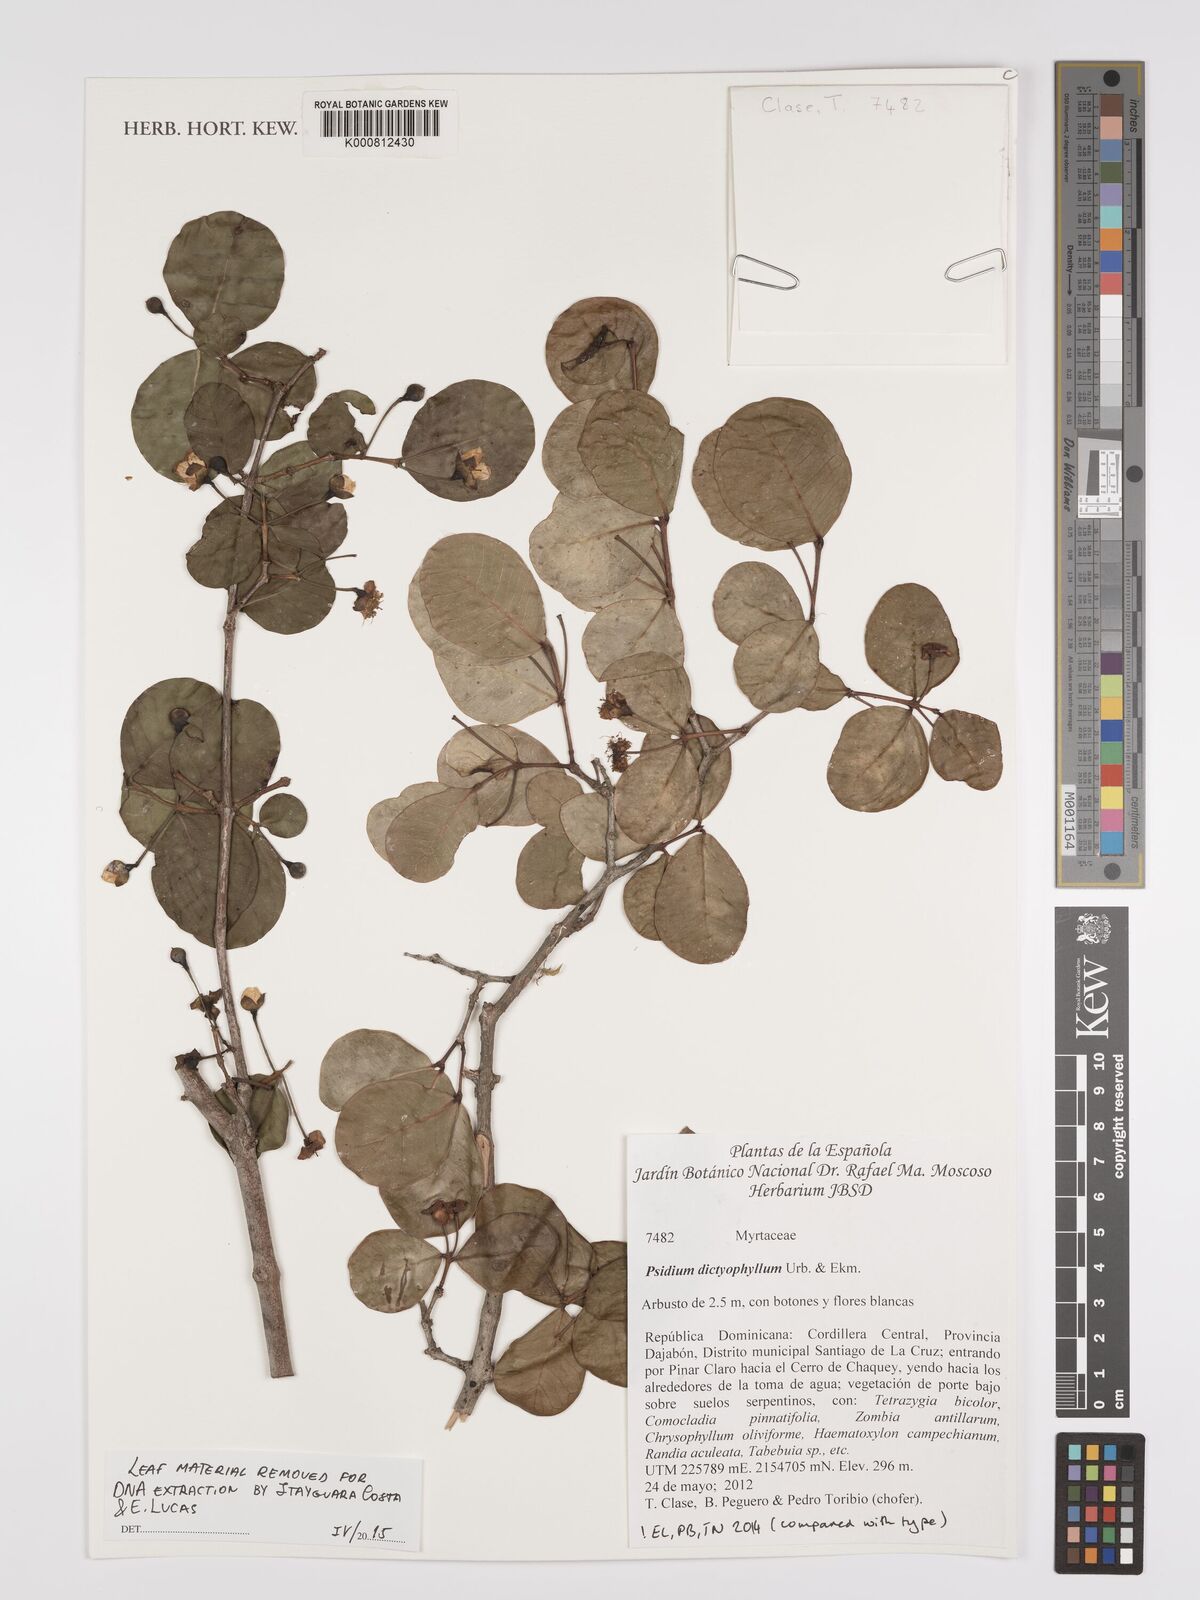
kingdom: Plantae
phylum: Tracheophyta
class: Magnoliopsida
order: Myrtales
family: Myrtaceae
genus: Psidium
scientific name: Psidium dictyophyllum
